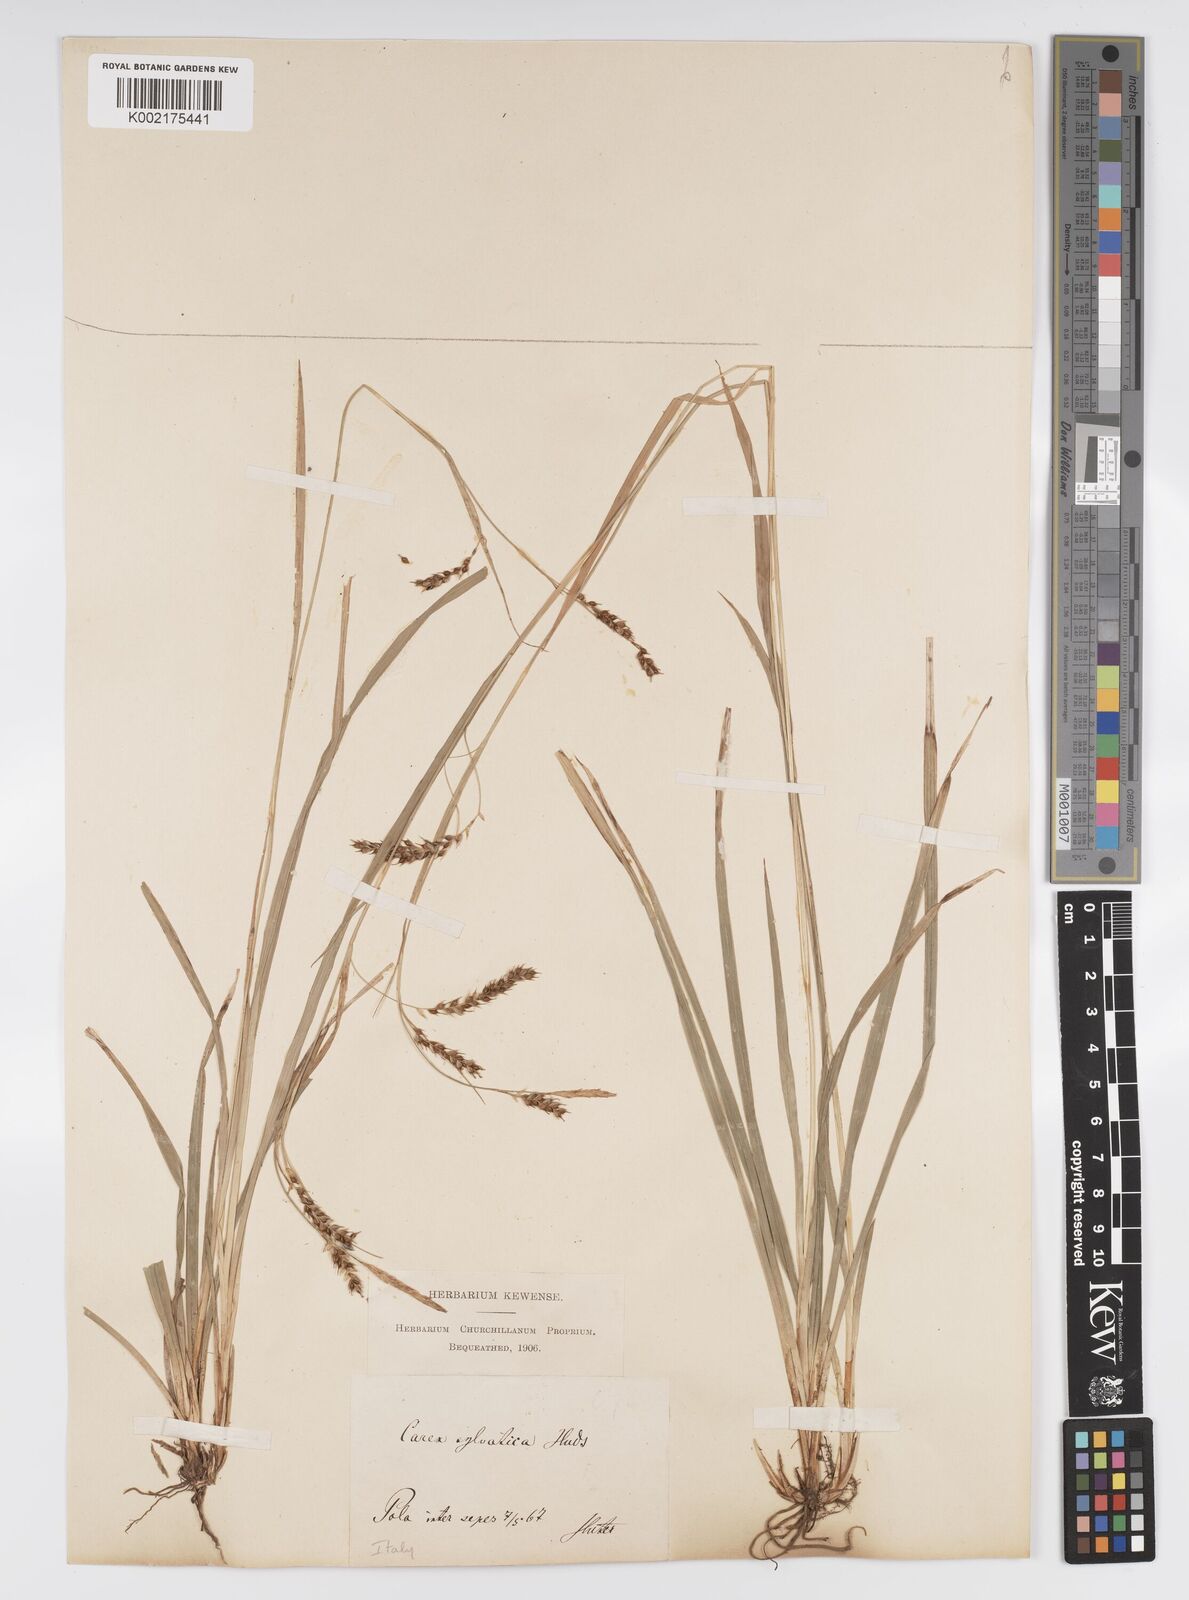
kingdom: Plantae
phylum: Tracheophyta
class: Liliopsida
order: Poales
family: Cyperaceae
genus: Carex
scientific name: Carex sylvatica
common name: Wood-sedge
